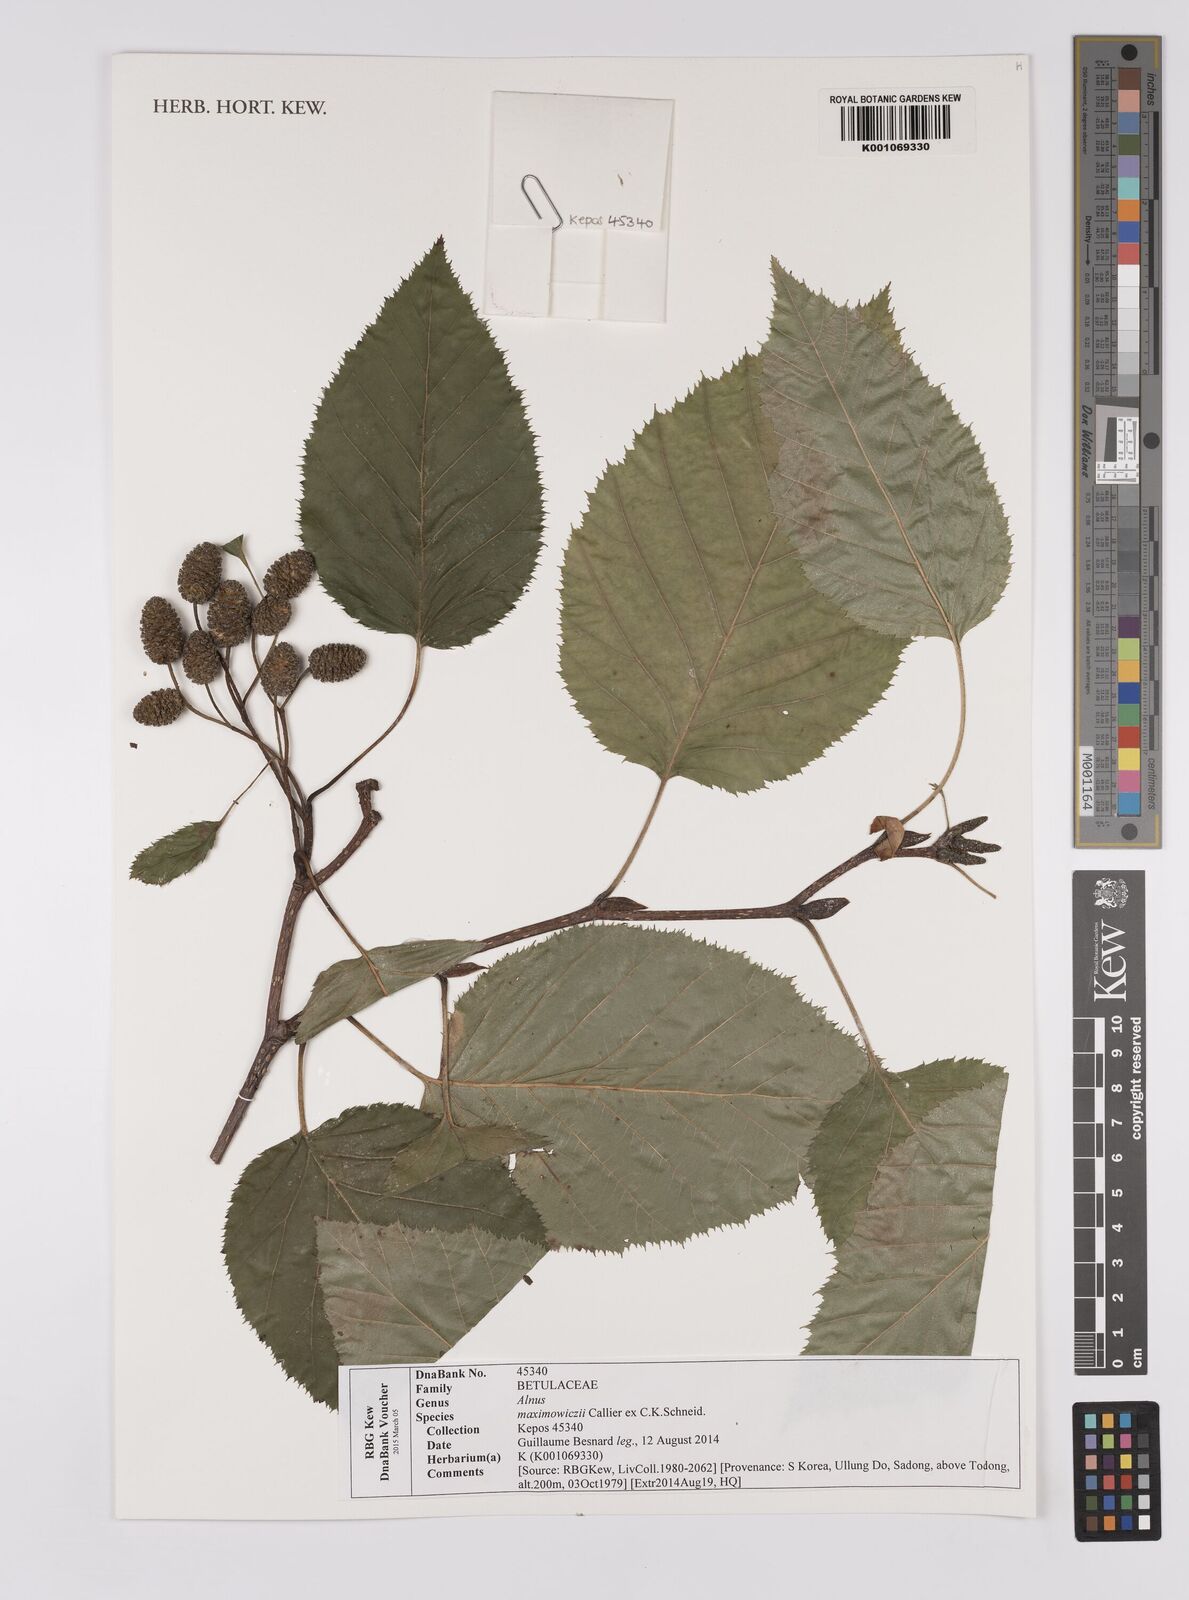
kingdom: Plantae
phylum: Tracheophyta
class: Magnoliopsida
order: Fagales
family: Betulaceae
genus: Alnus
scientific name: Alnus maximowiczii
